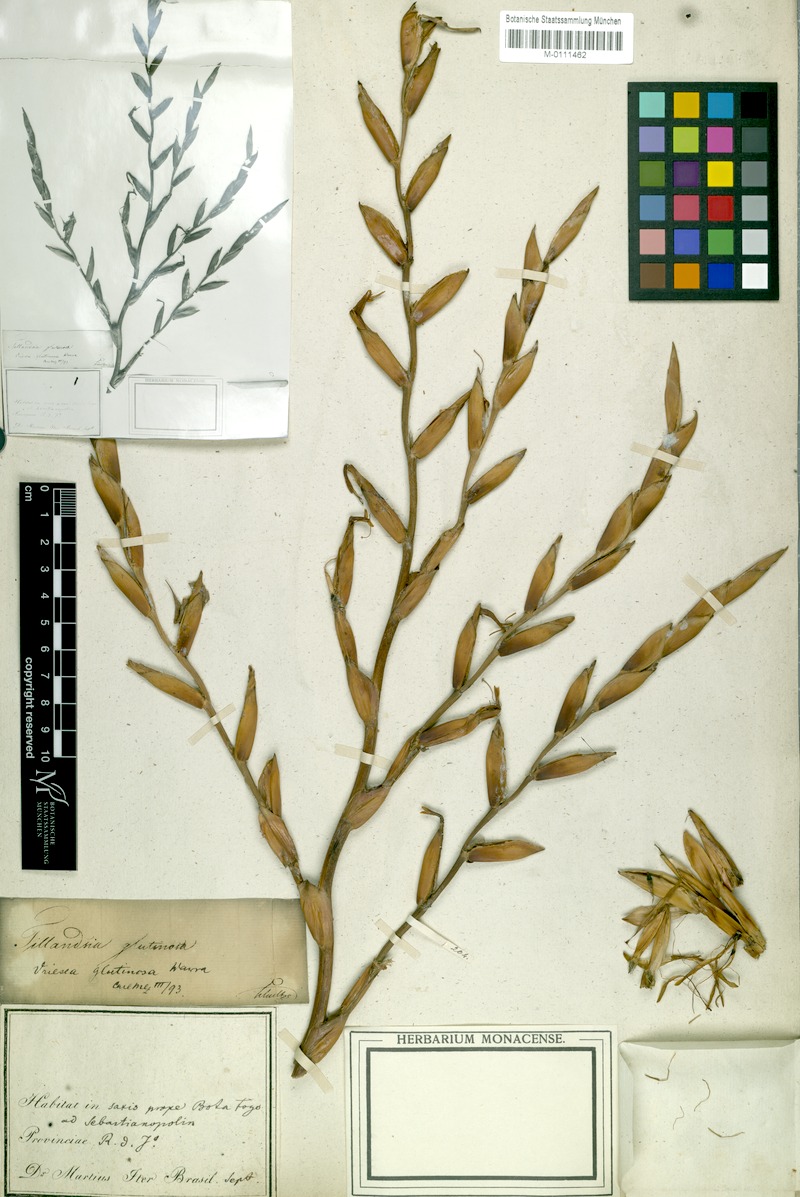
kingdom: Plantae
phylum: Tracheophyta
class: Liliopsida
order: Poales
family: Bromeliaceae
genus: Vriesea
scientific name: Vriesea neoglutinosa
